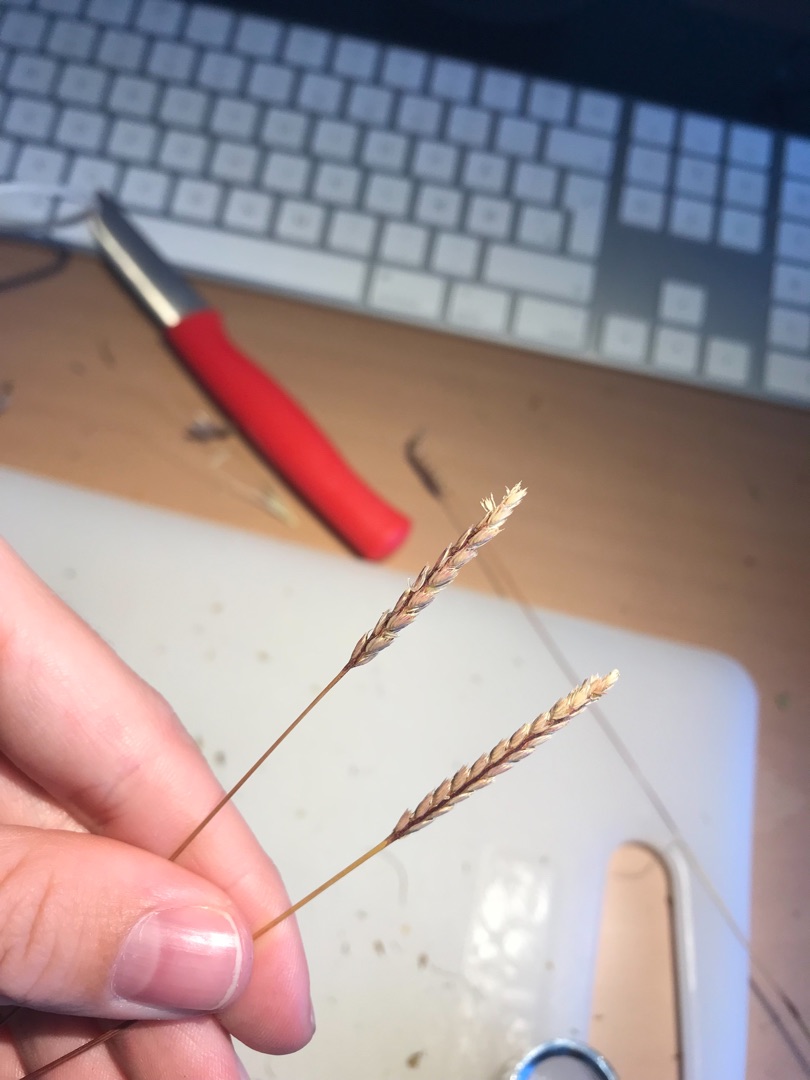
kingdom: Plantae
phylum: Tracheophyta
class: Liliopsida
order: Poales
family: Poaceae
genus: Cynosurus
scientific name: Cynosurus cristatus
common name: Kamgræs
